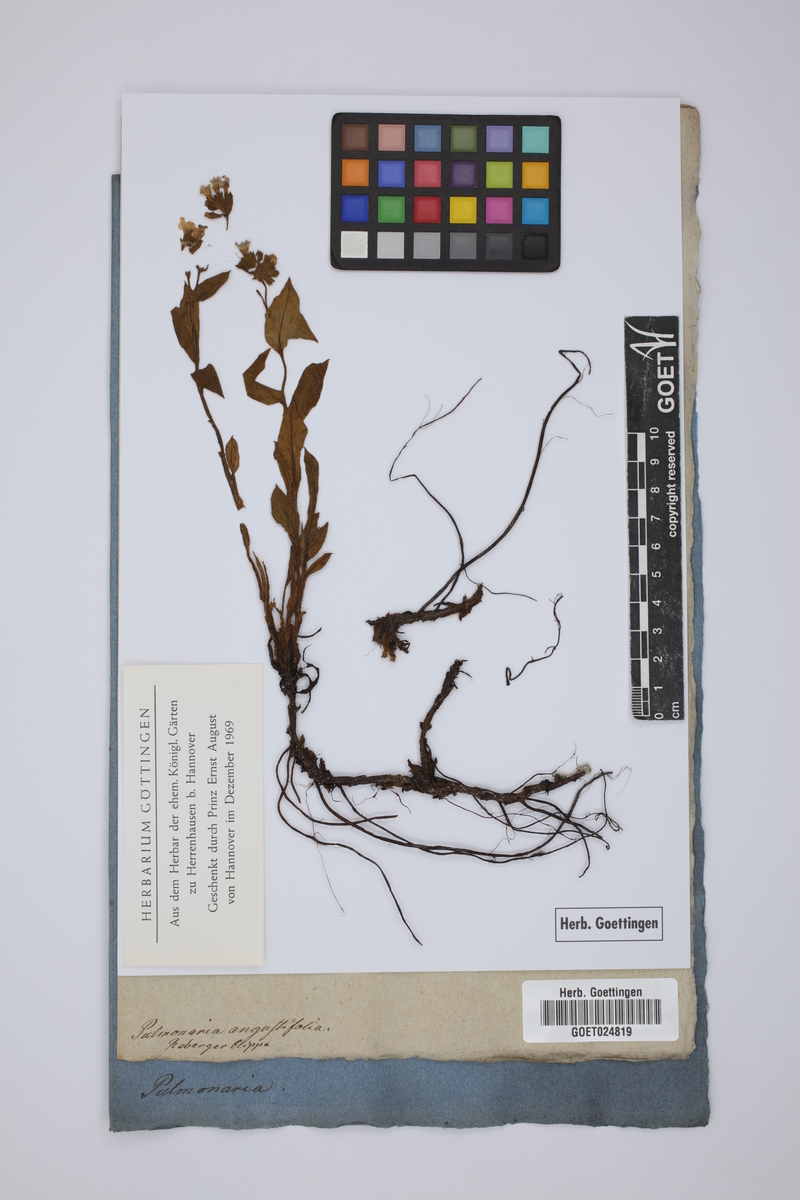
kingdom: Plantae
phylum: Tracheophyta
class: Magnoliopsida
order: Boraginales
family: Boraginaceae
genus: Pulmonaria
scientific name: Pulmonaria angustifolia
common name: Blue cowslip
